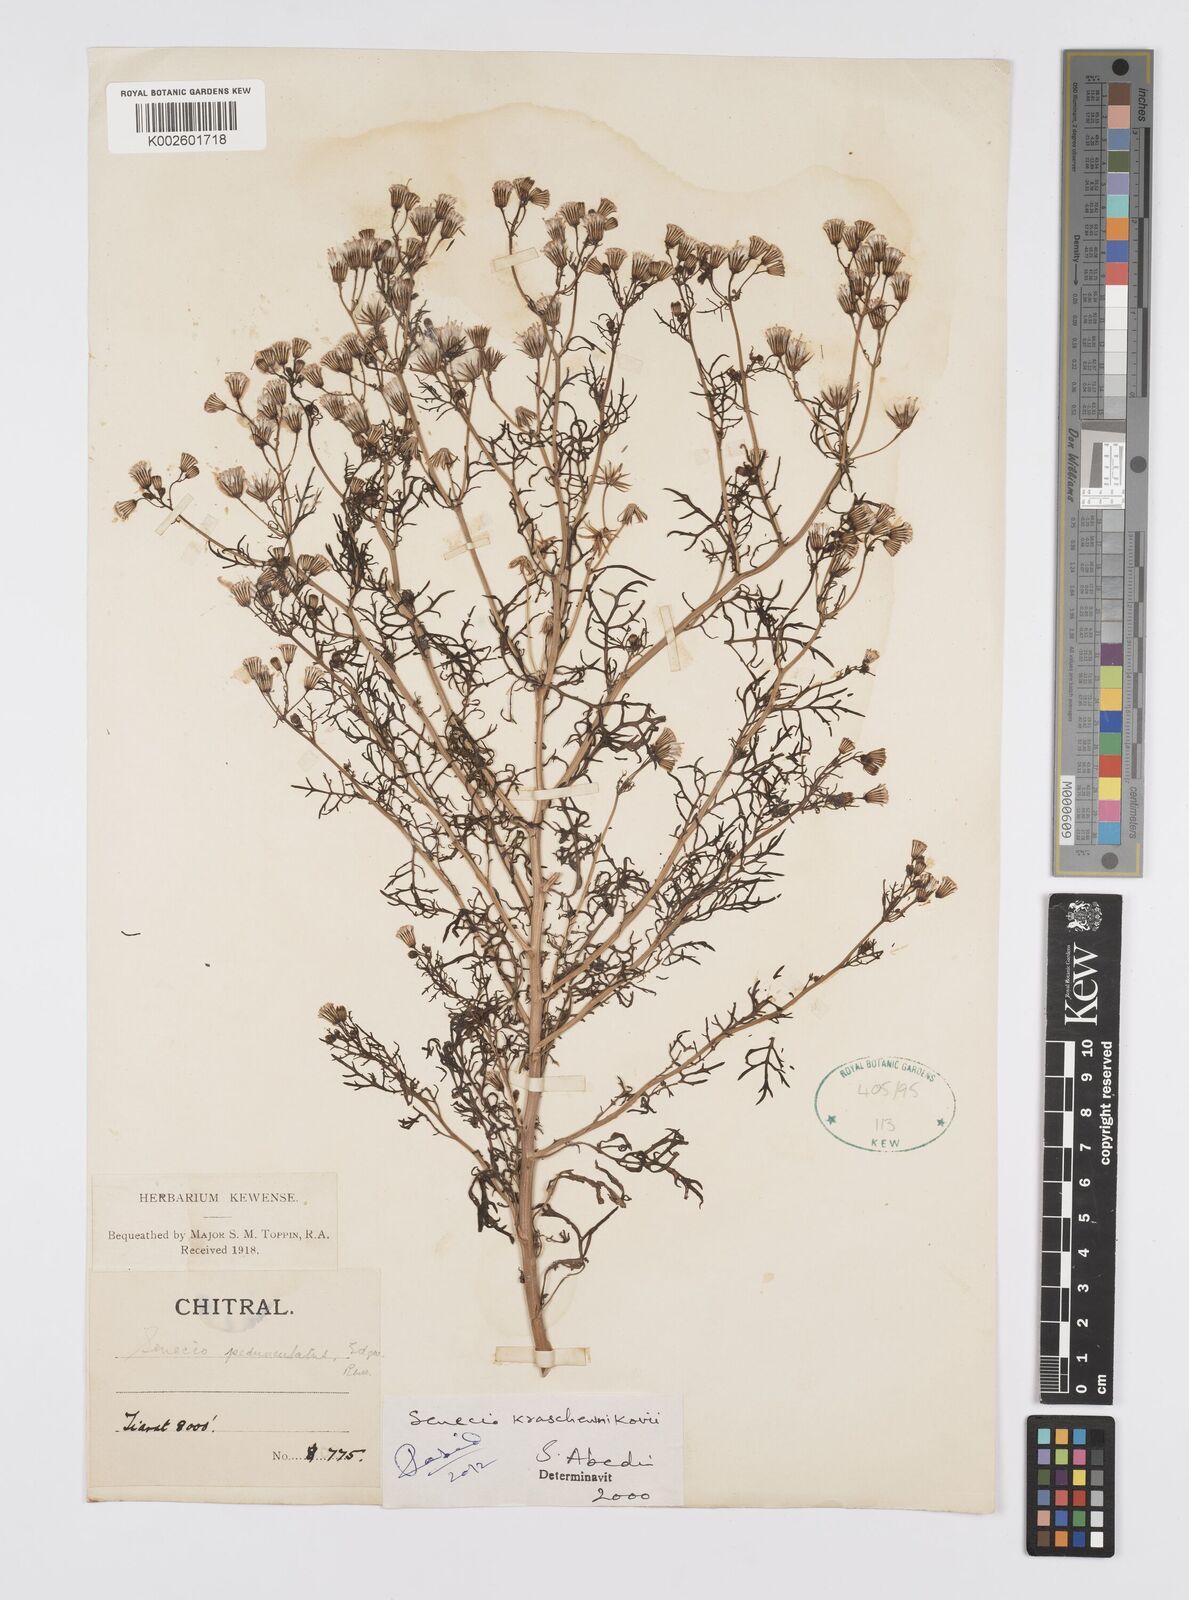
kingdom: Plantae
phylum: Tracheophyta
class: Magnoliopsida
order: Asterales
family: Asteraceae
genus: Senecio
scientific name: Senecio krascheninnikovii
